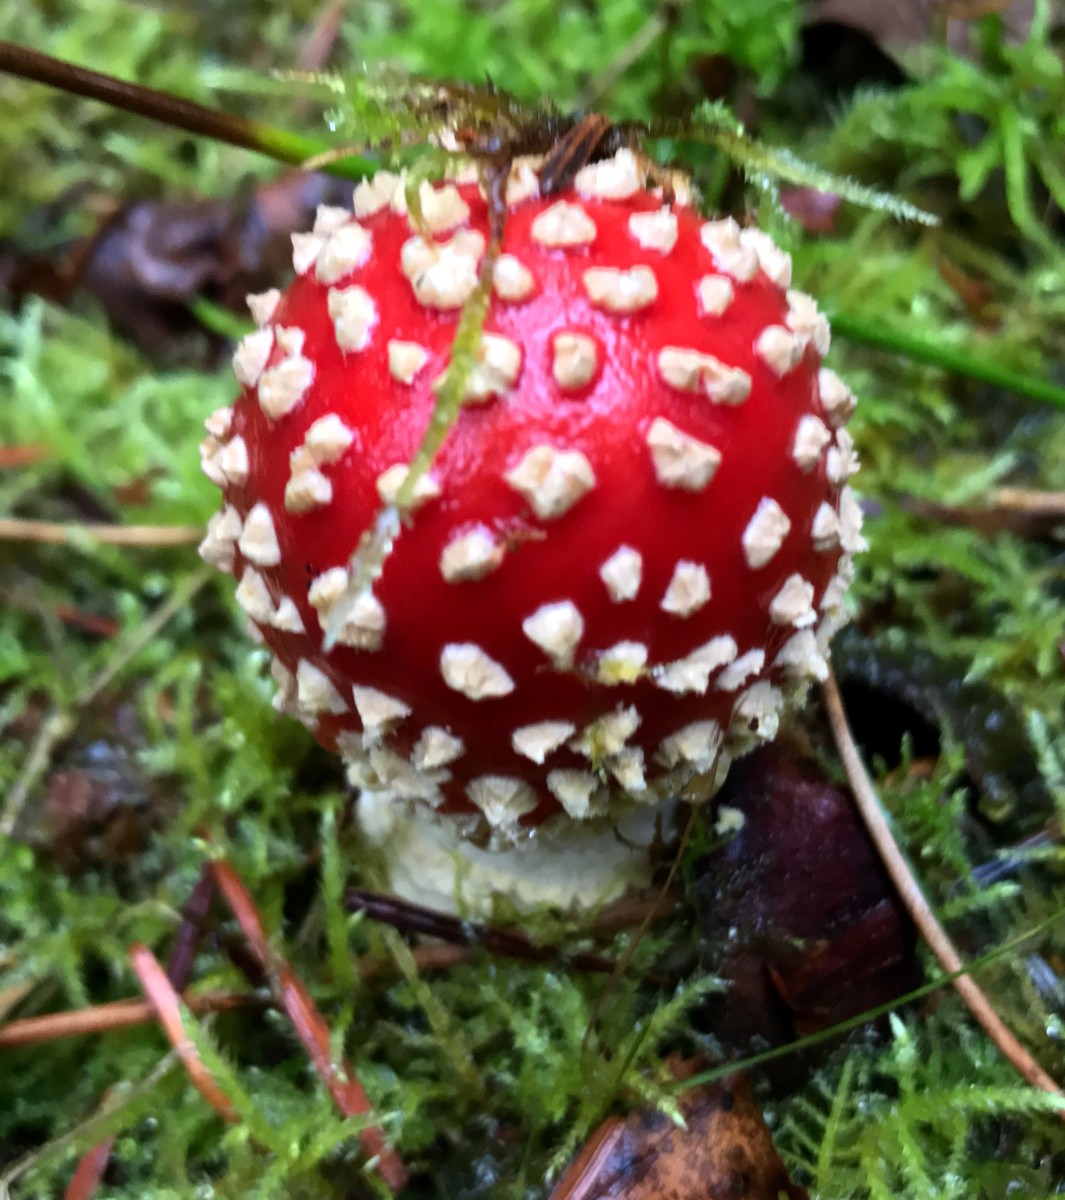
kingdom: Fungi
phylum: Basidiomycota
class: Agaricomycetes
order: Agaricales
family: Amanitaceae
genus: Amanita
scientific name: Amanita muscaria
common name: rød fluesvamp
